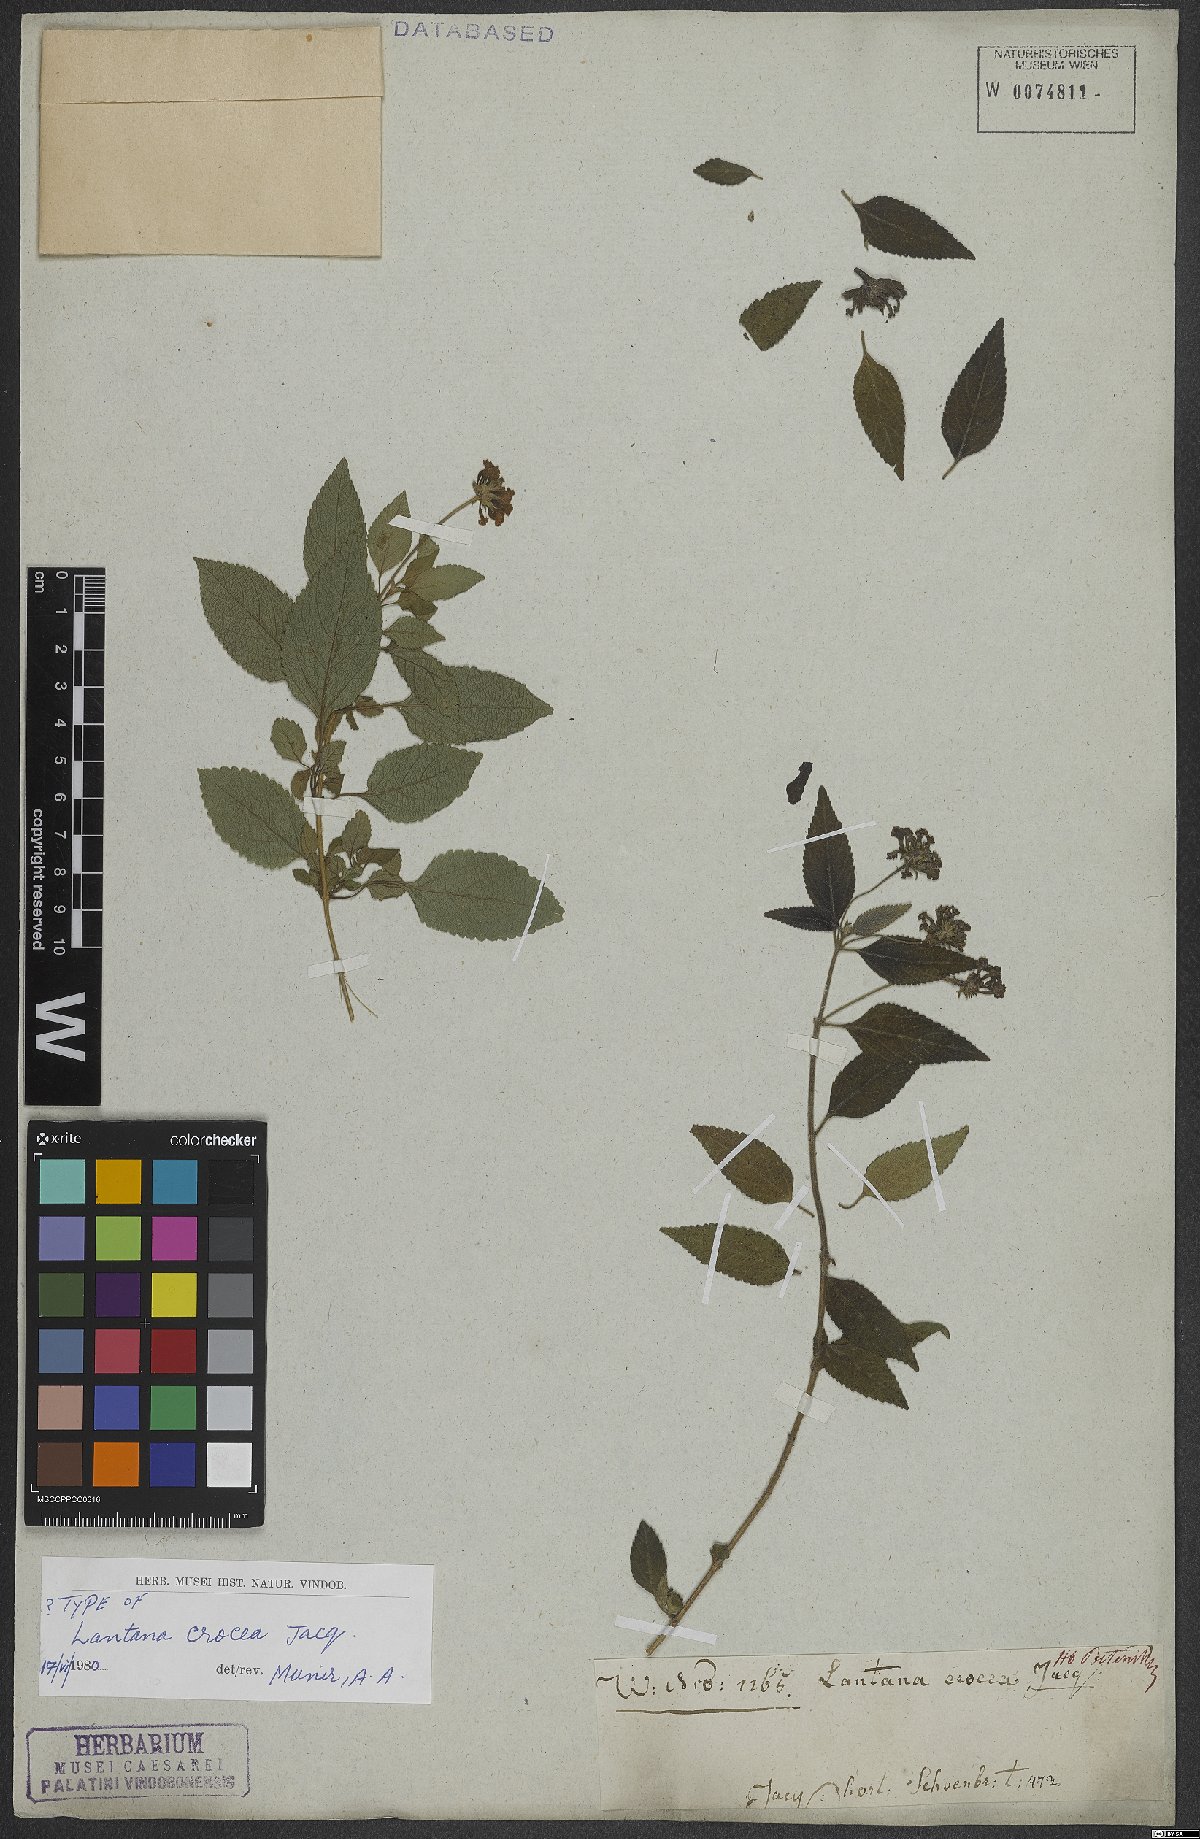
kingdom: Plantae
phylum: Tracheophyta
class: Magnoliopsida
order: Lamiales
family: Verbenaceae
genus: Lantana
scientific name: Lantana camara
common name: Lantana
